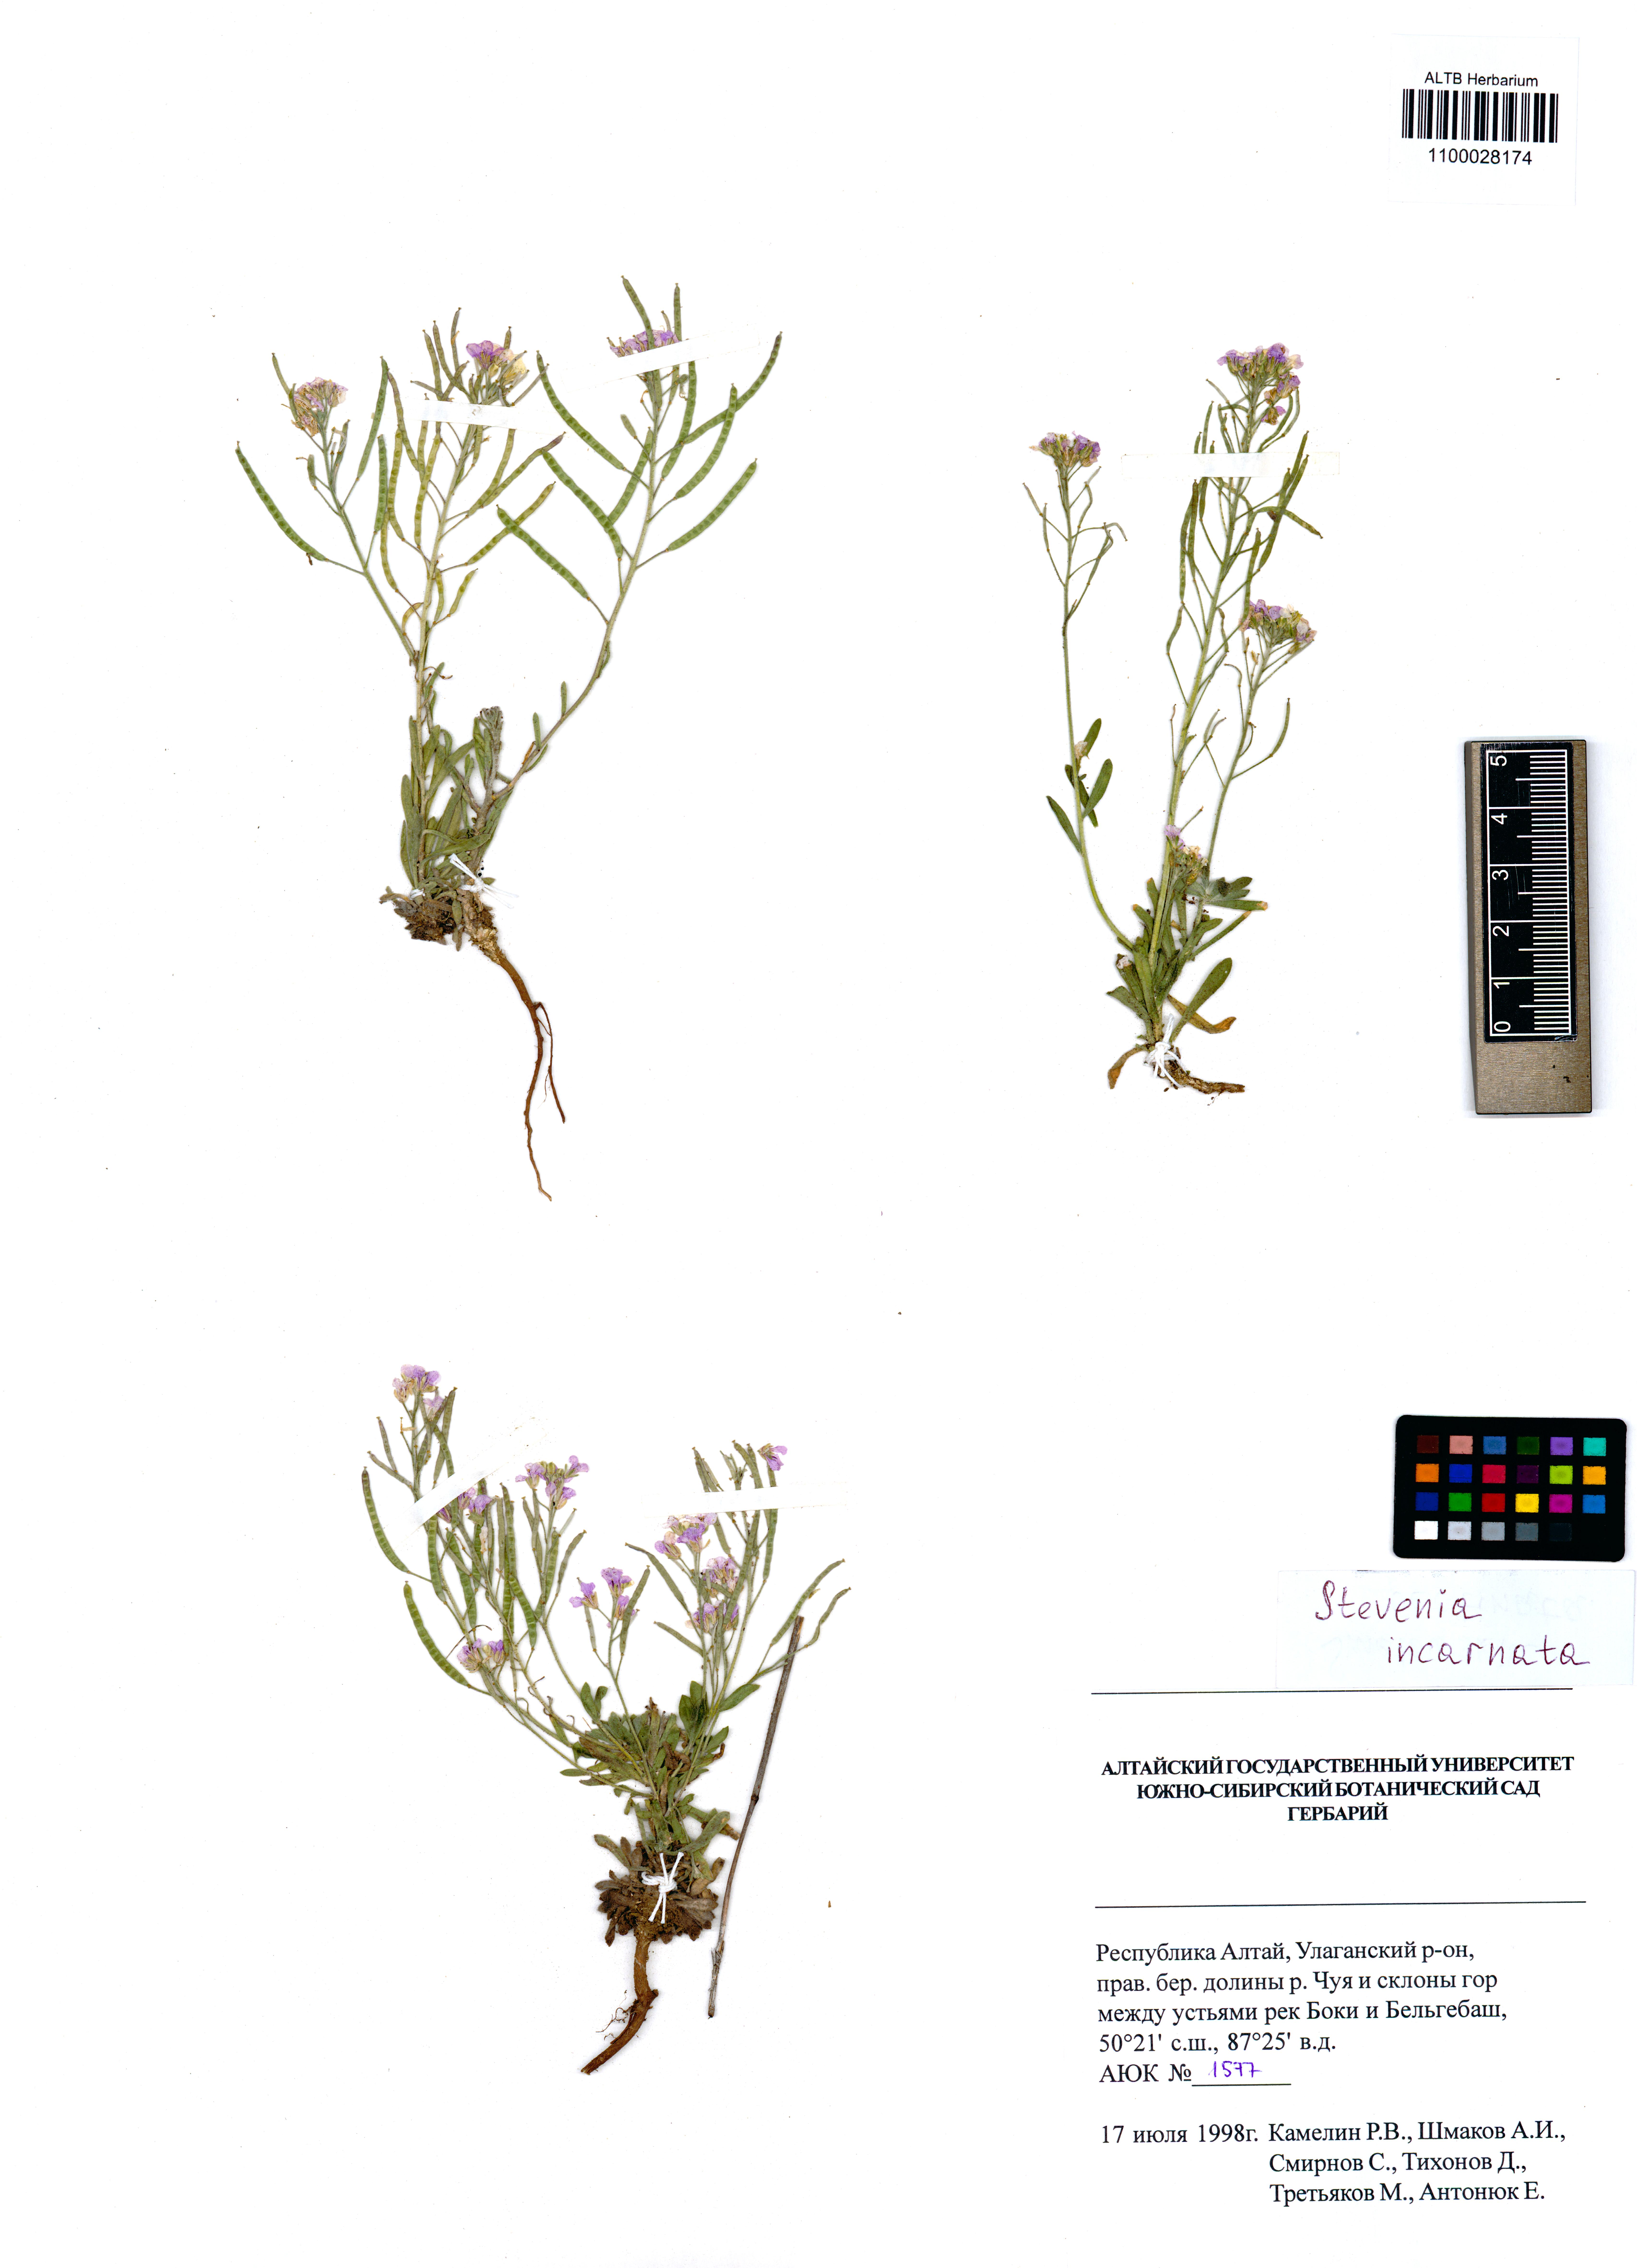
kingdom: Plantae
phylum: Tracheophyta
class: Magnoliopsida
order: Brassicales
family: Brassicaceae
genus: Stevenia
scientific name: Stevenia incarnata
